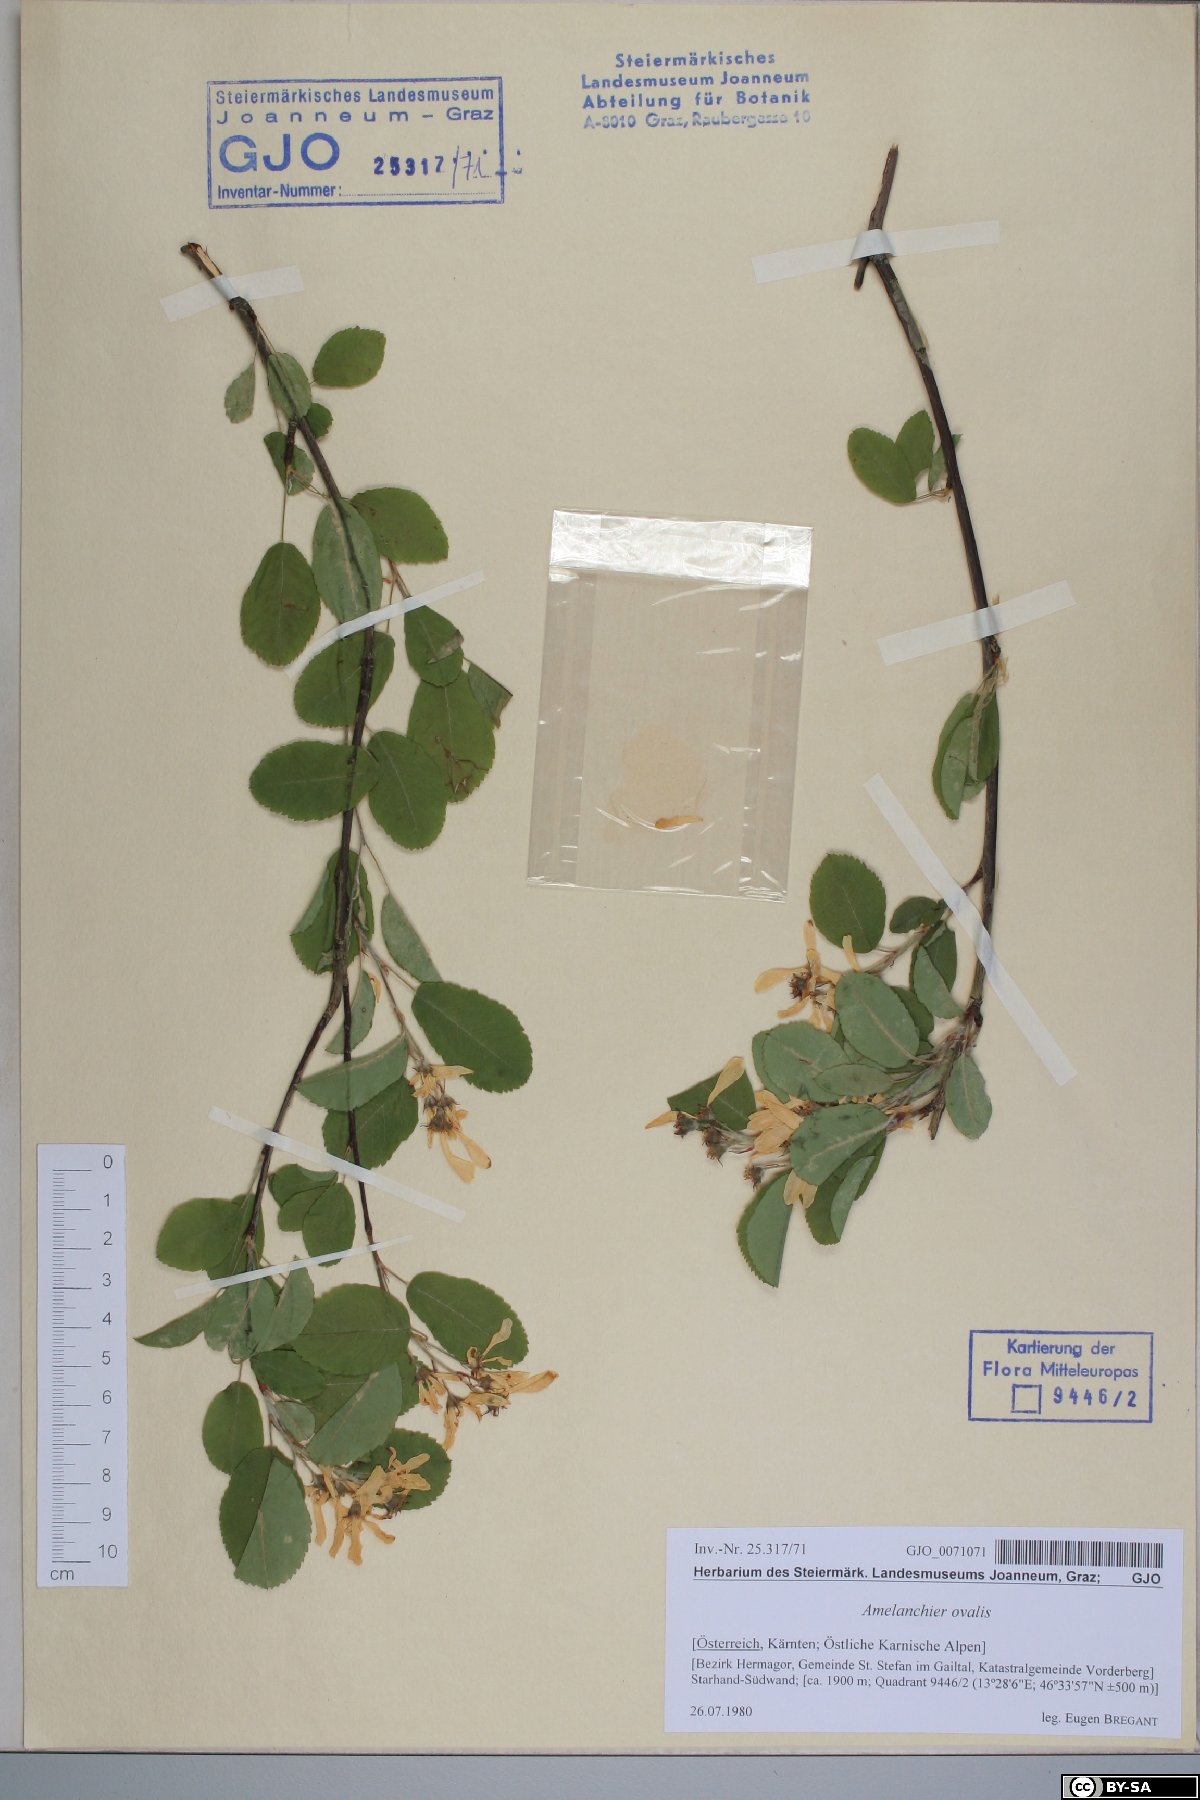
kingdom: Plantae
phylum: Tracheophyta
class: Magnoliopsida
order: Rosales
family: Rosaceae
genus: Amelanchier
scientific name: Amelanchier ovalis
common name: Serviceberry
